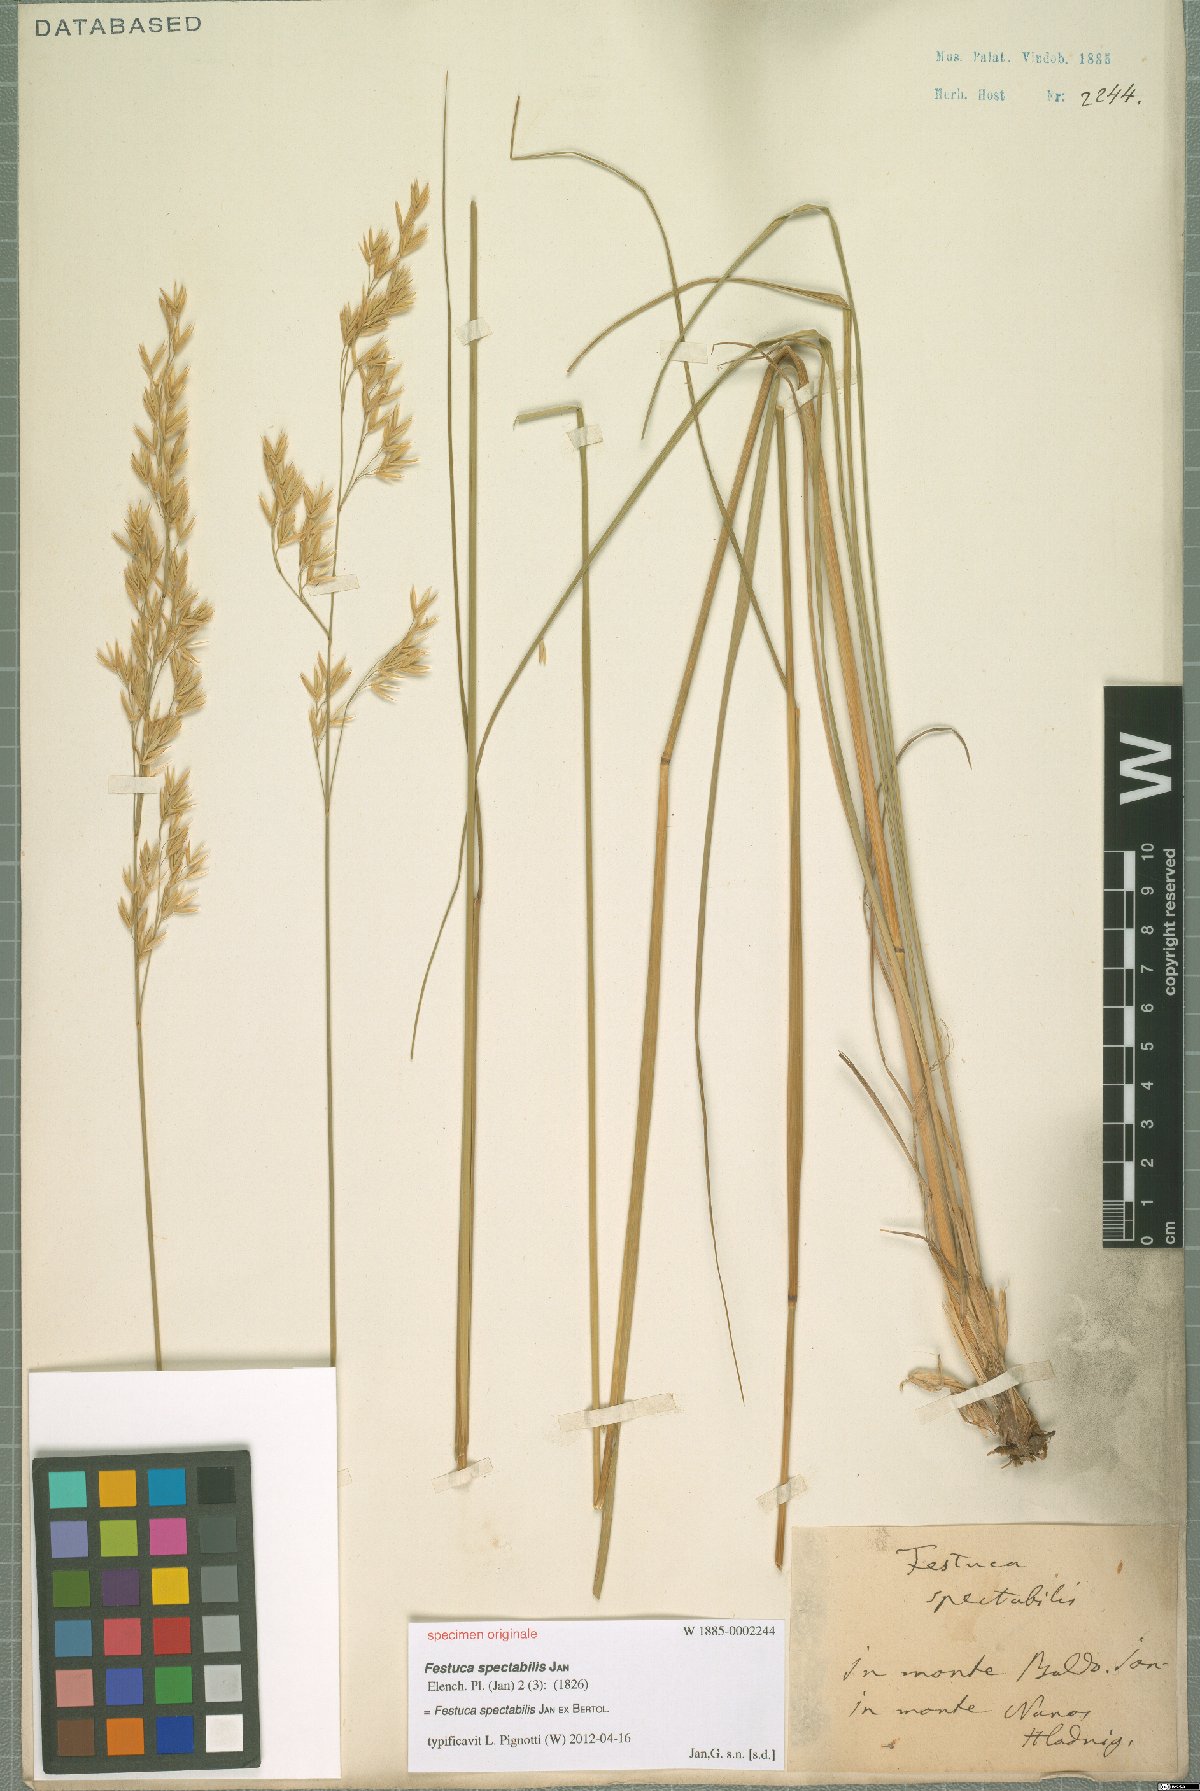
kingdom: Plantae
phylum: Tracheophyta
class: Liliopsida
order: Poales
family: Poaceae
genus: Festuca
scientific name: Festuca spectabilis
